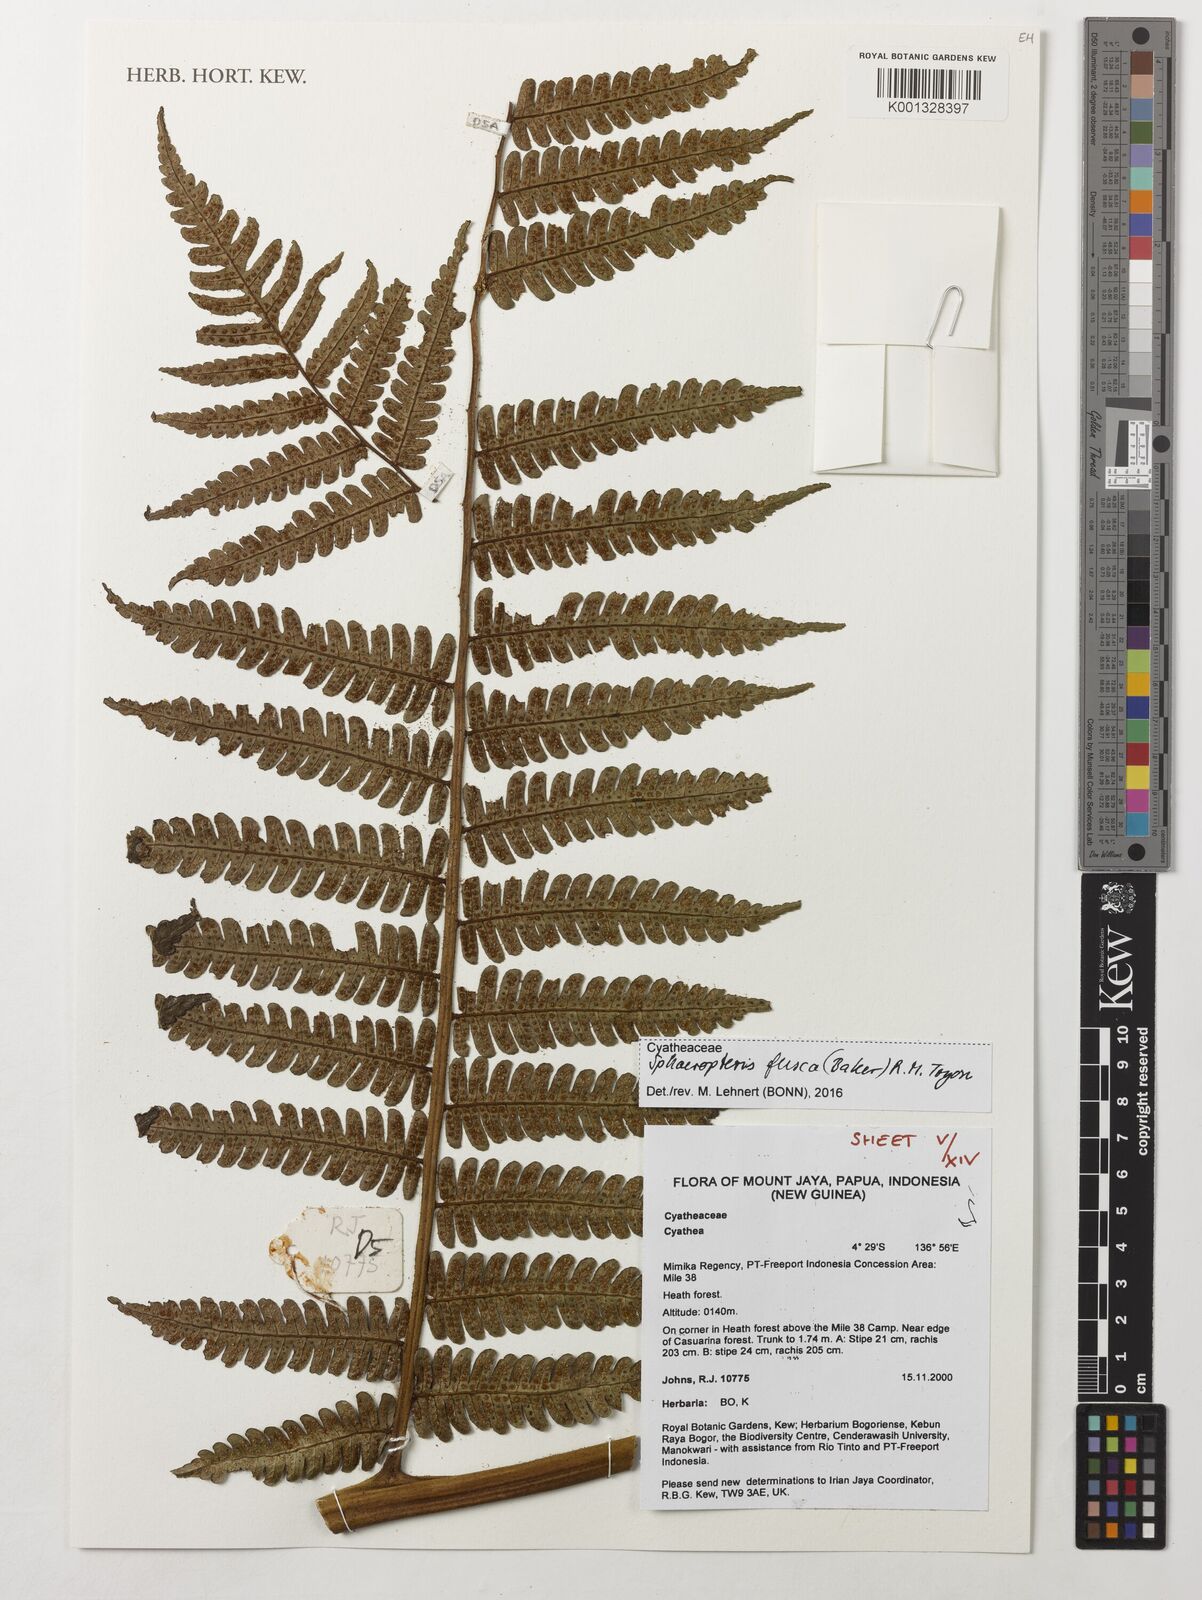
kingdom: Plantae
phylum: Tracheophyta
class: Polypodiopsida
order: Cyatheales
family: Cyatheaceae
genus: Sphaeropteris
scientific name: Sphaeropteris fusca
